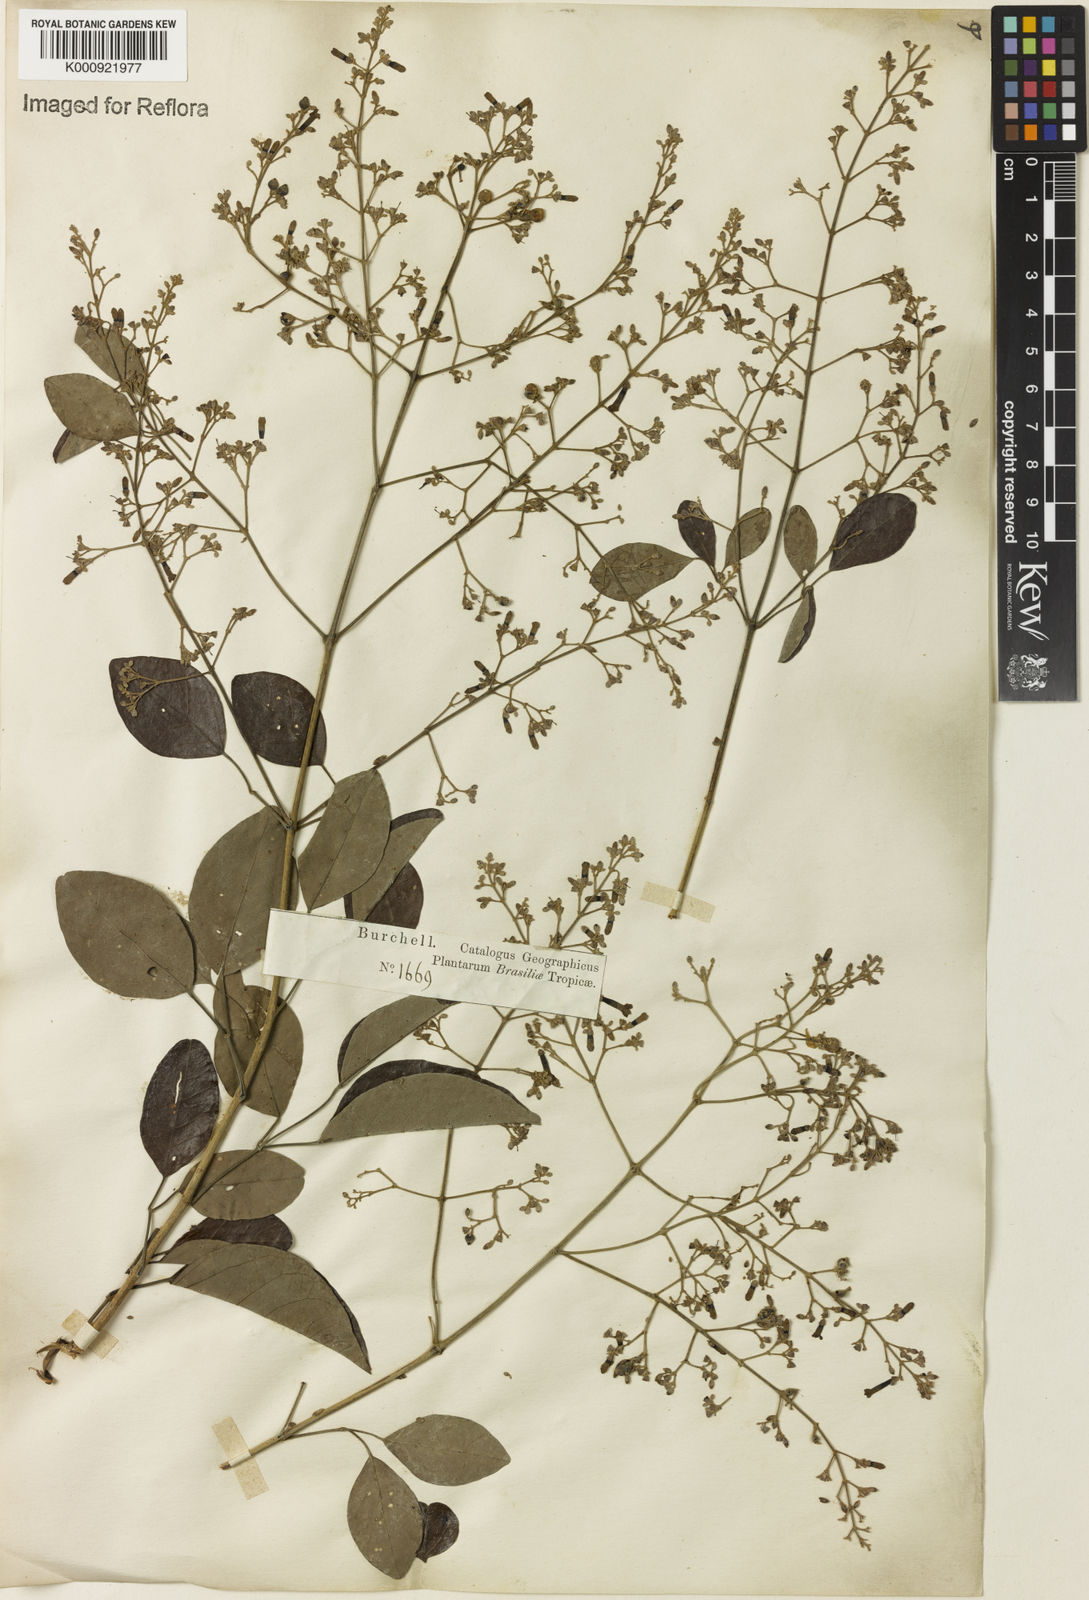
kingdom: Plantae
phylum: Tracheophyta
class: Magnoliopsida
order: Lamiales
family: Bignoniaceae
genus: Fridericia
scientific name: Fridericia rego
